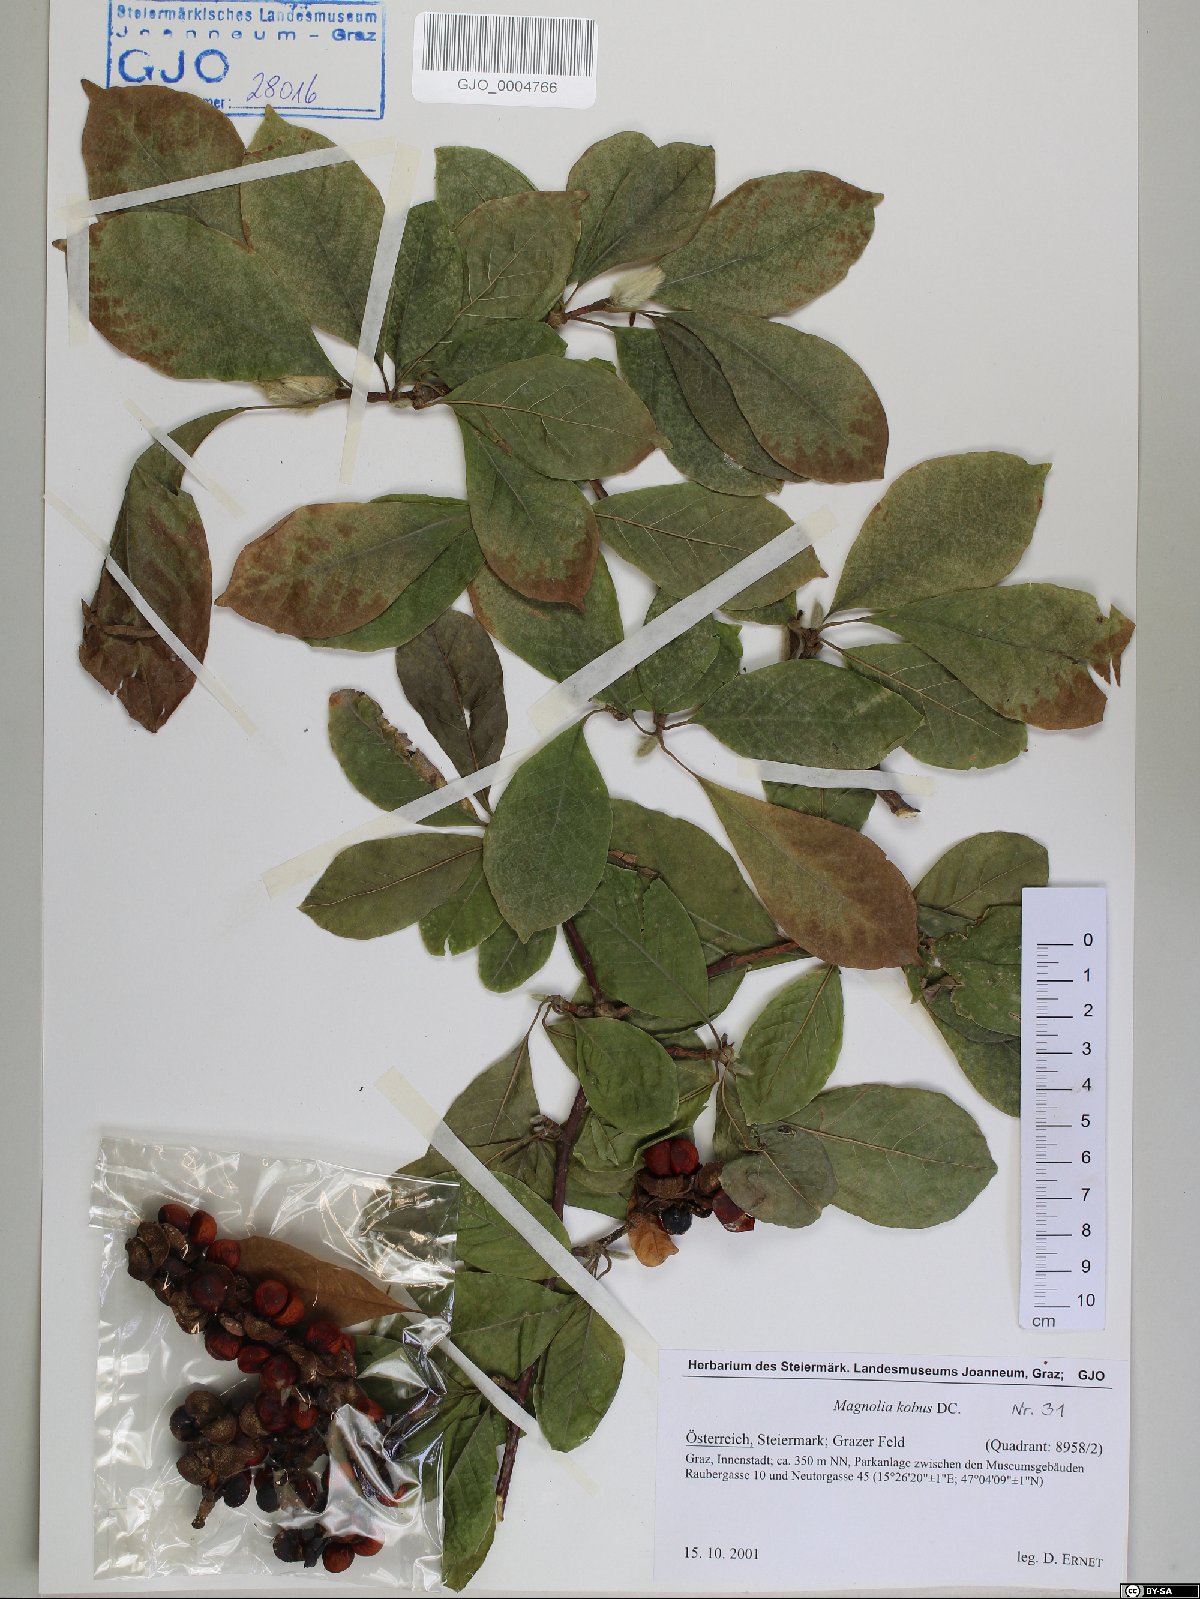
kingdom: Plantae
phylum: Tracheophyta
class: Magnoliopsida
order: Magnoliales
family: Magnoliaceae
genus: Magnolia
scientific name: Magnolia kobus
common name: Kobus magnolia
